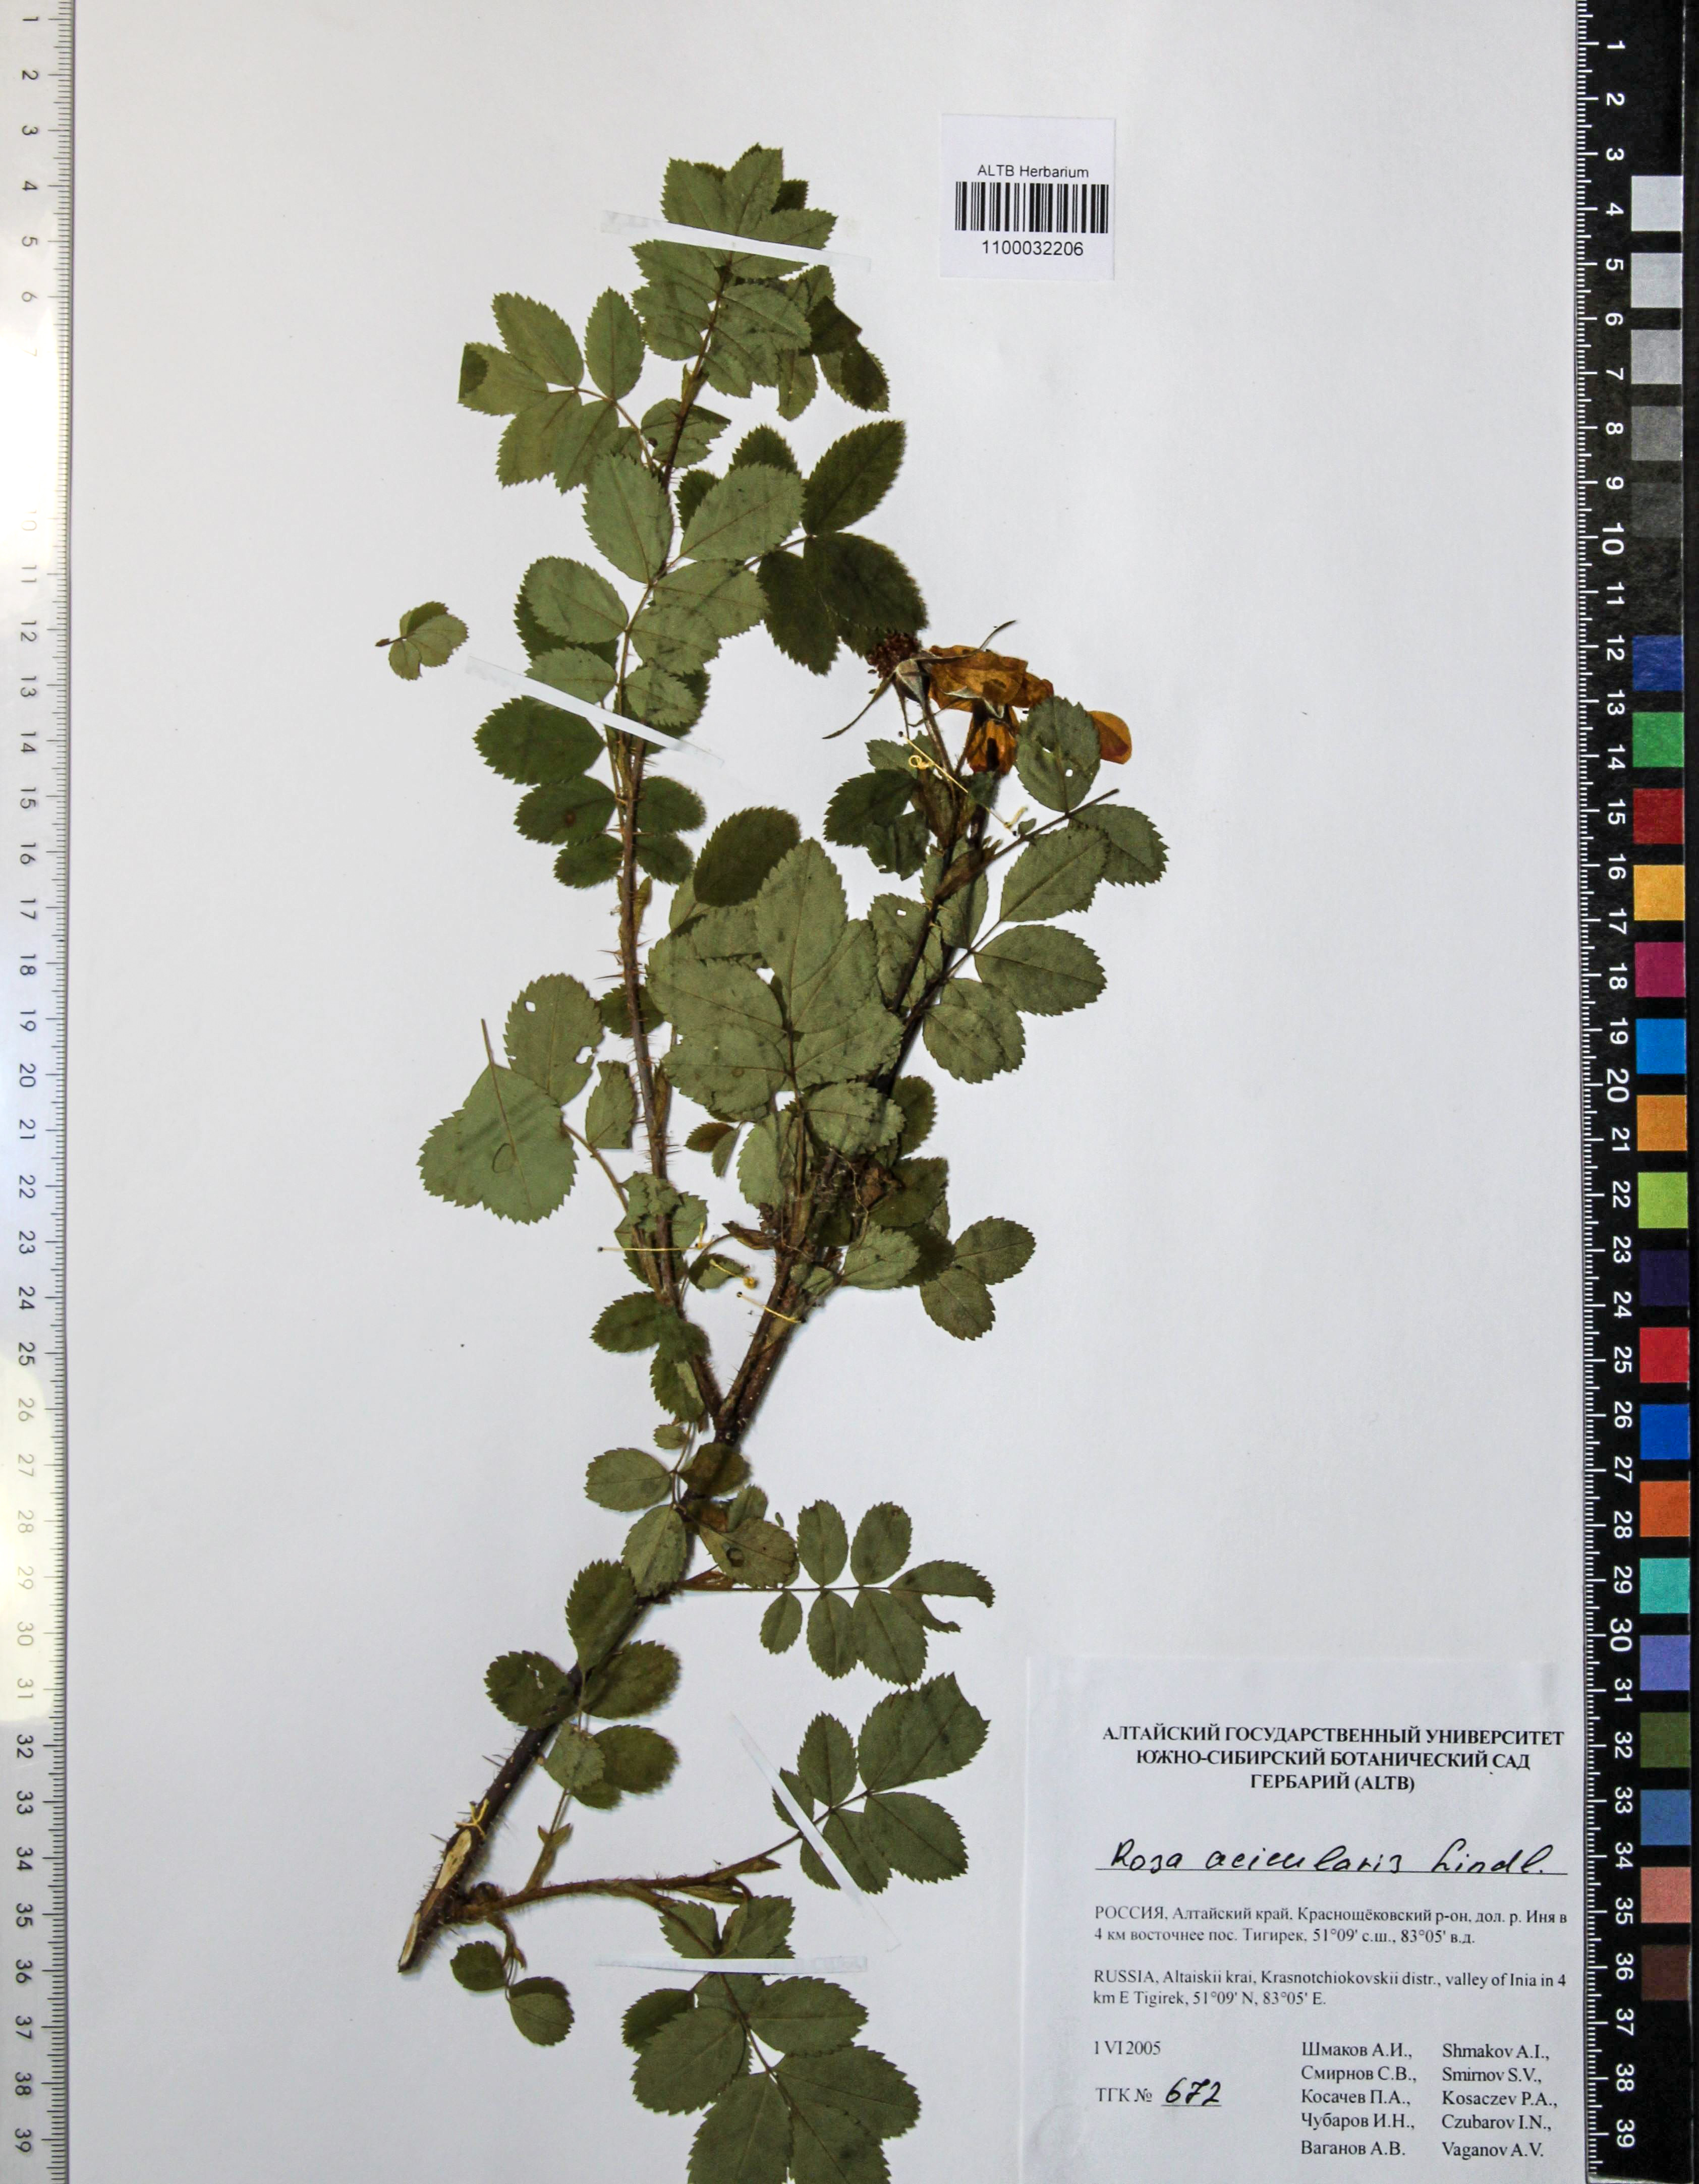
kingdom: Plantae
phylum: Tracheophyta
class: Magnoliopsida
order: Rosales
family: Rosaceae
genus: Rosa
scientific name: Rosa acicularis
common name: Prickly rose
